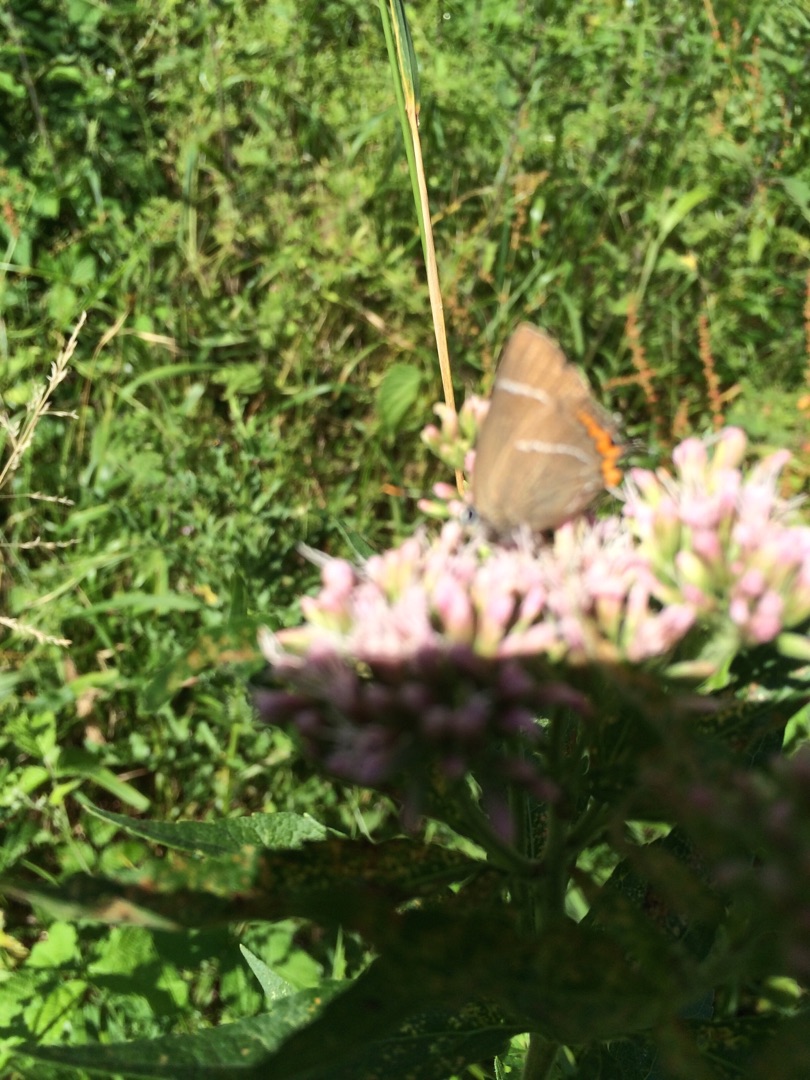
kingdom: Animalia
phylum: Arthropoda
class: Insecta
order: Lepidoptera
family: Lycaenidae
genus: Satyrium
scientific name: Satyrium w-album
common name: Det hvide W
